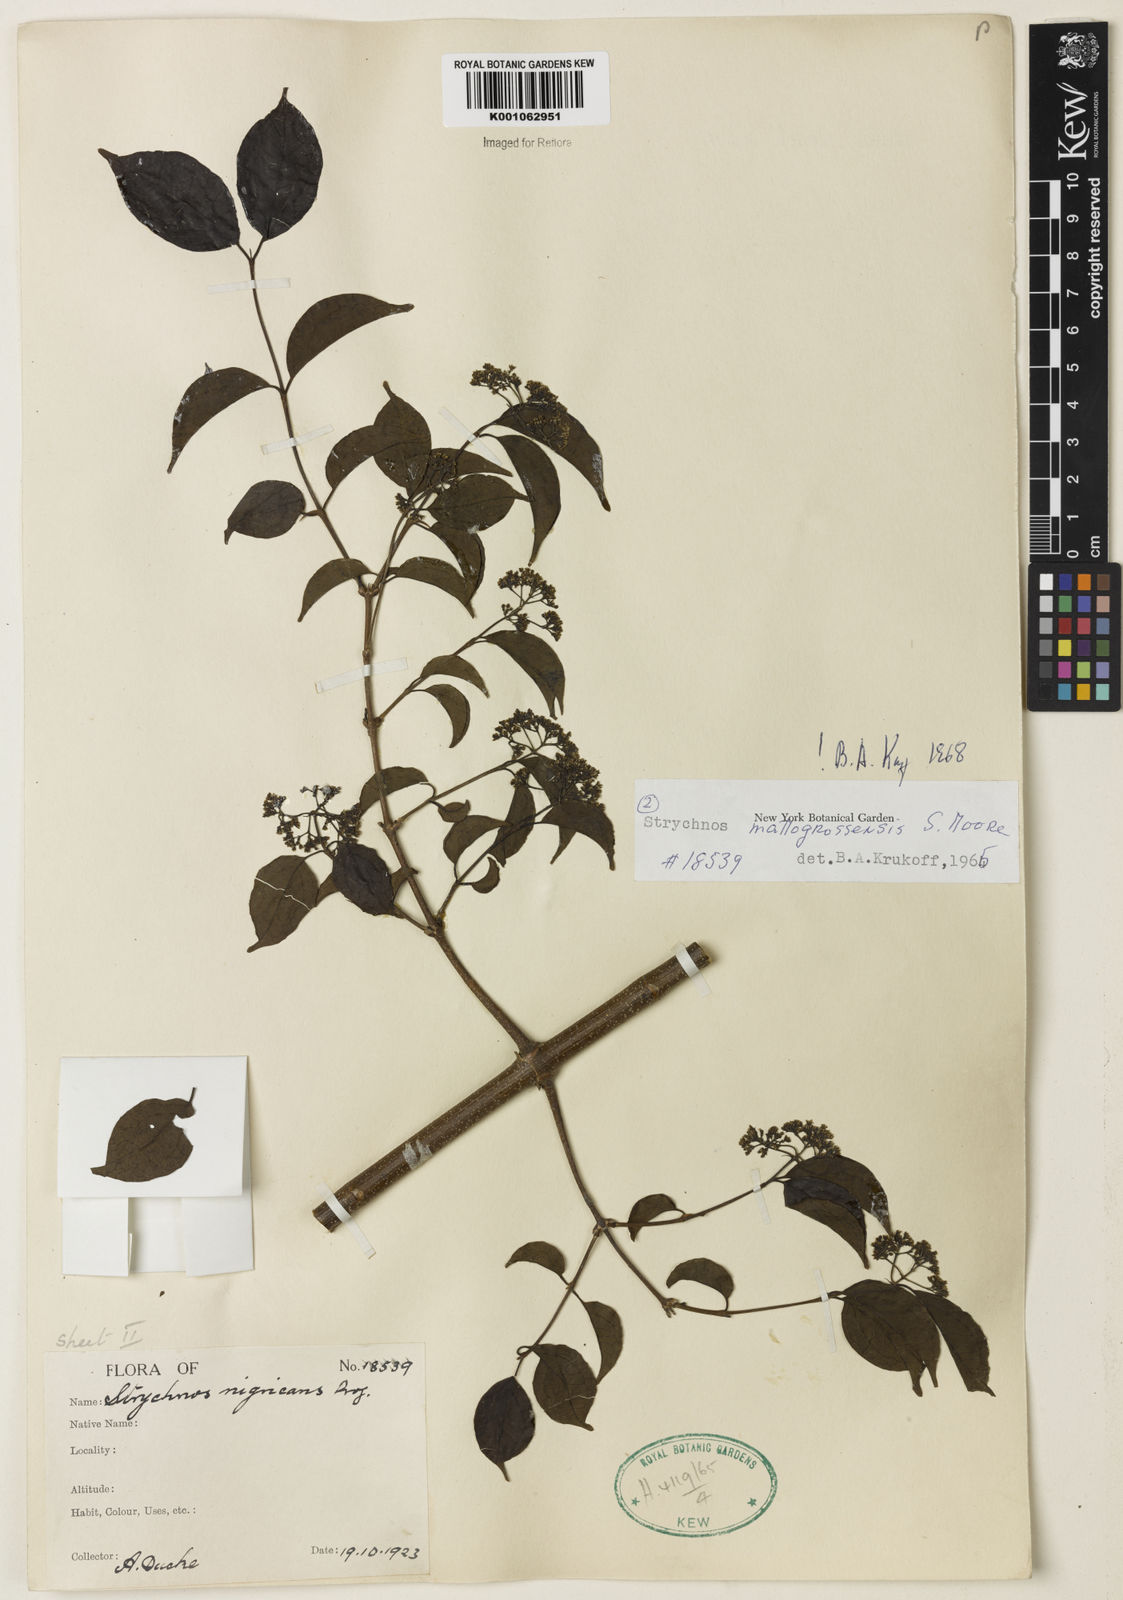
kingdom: Plantae
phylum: Tracheophyta
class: Magnoliopsida
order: Gentianales
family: Loganiaceae
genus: Strychnos
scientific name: Strychnos mattogrossensis
